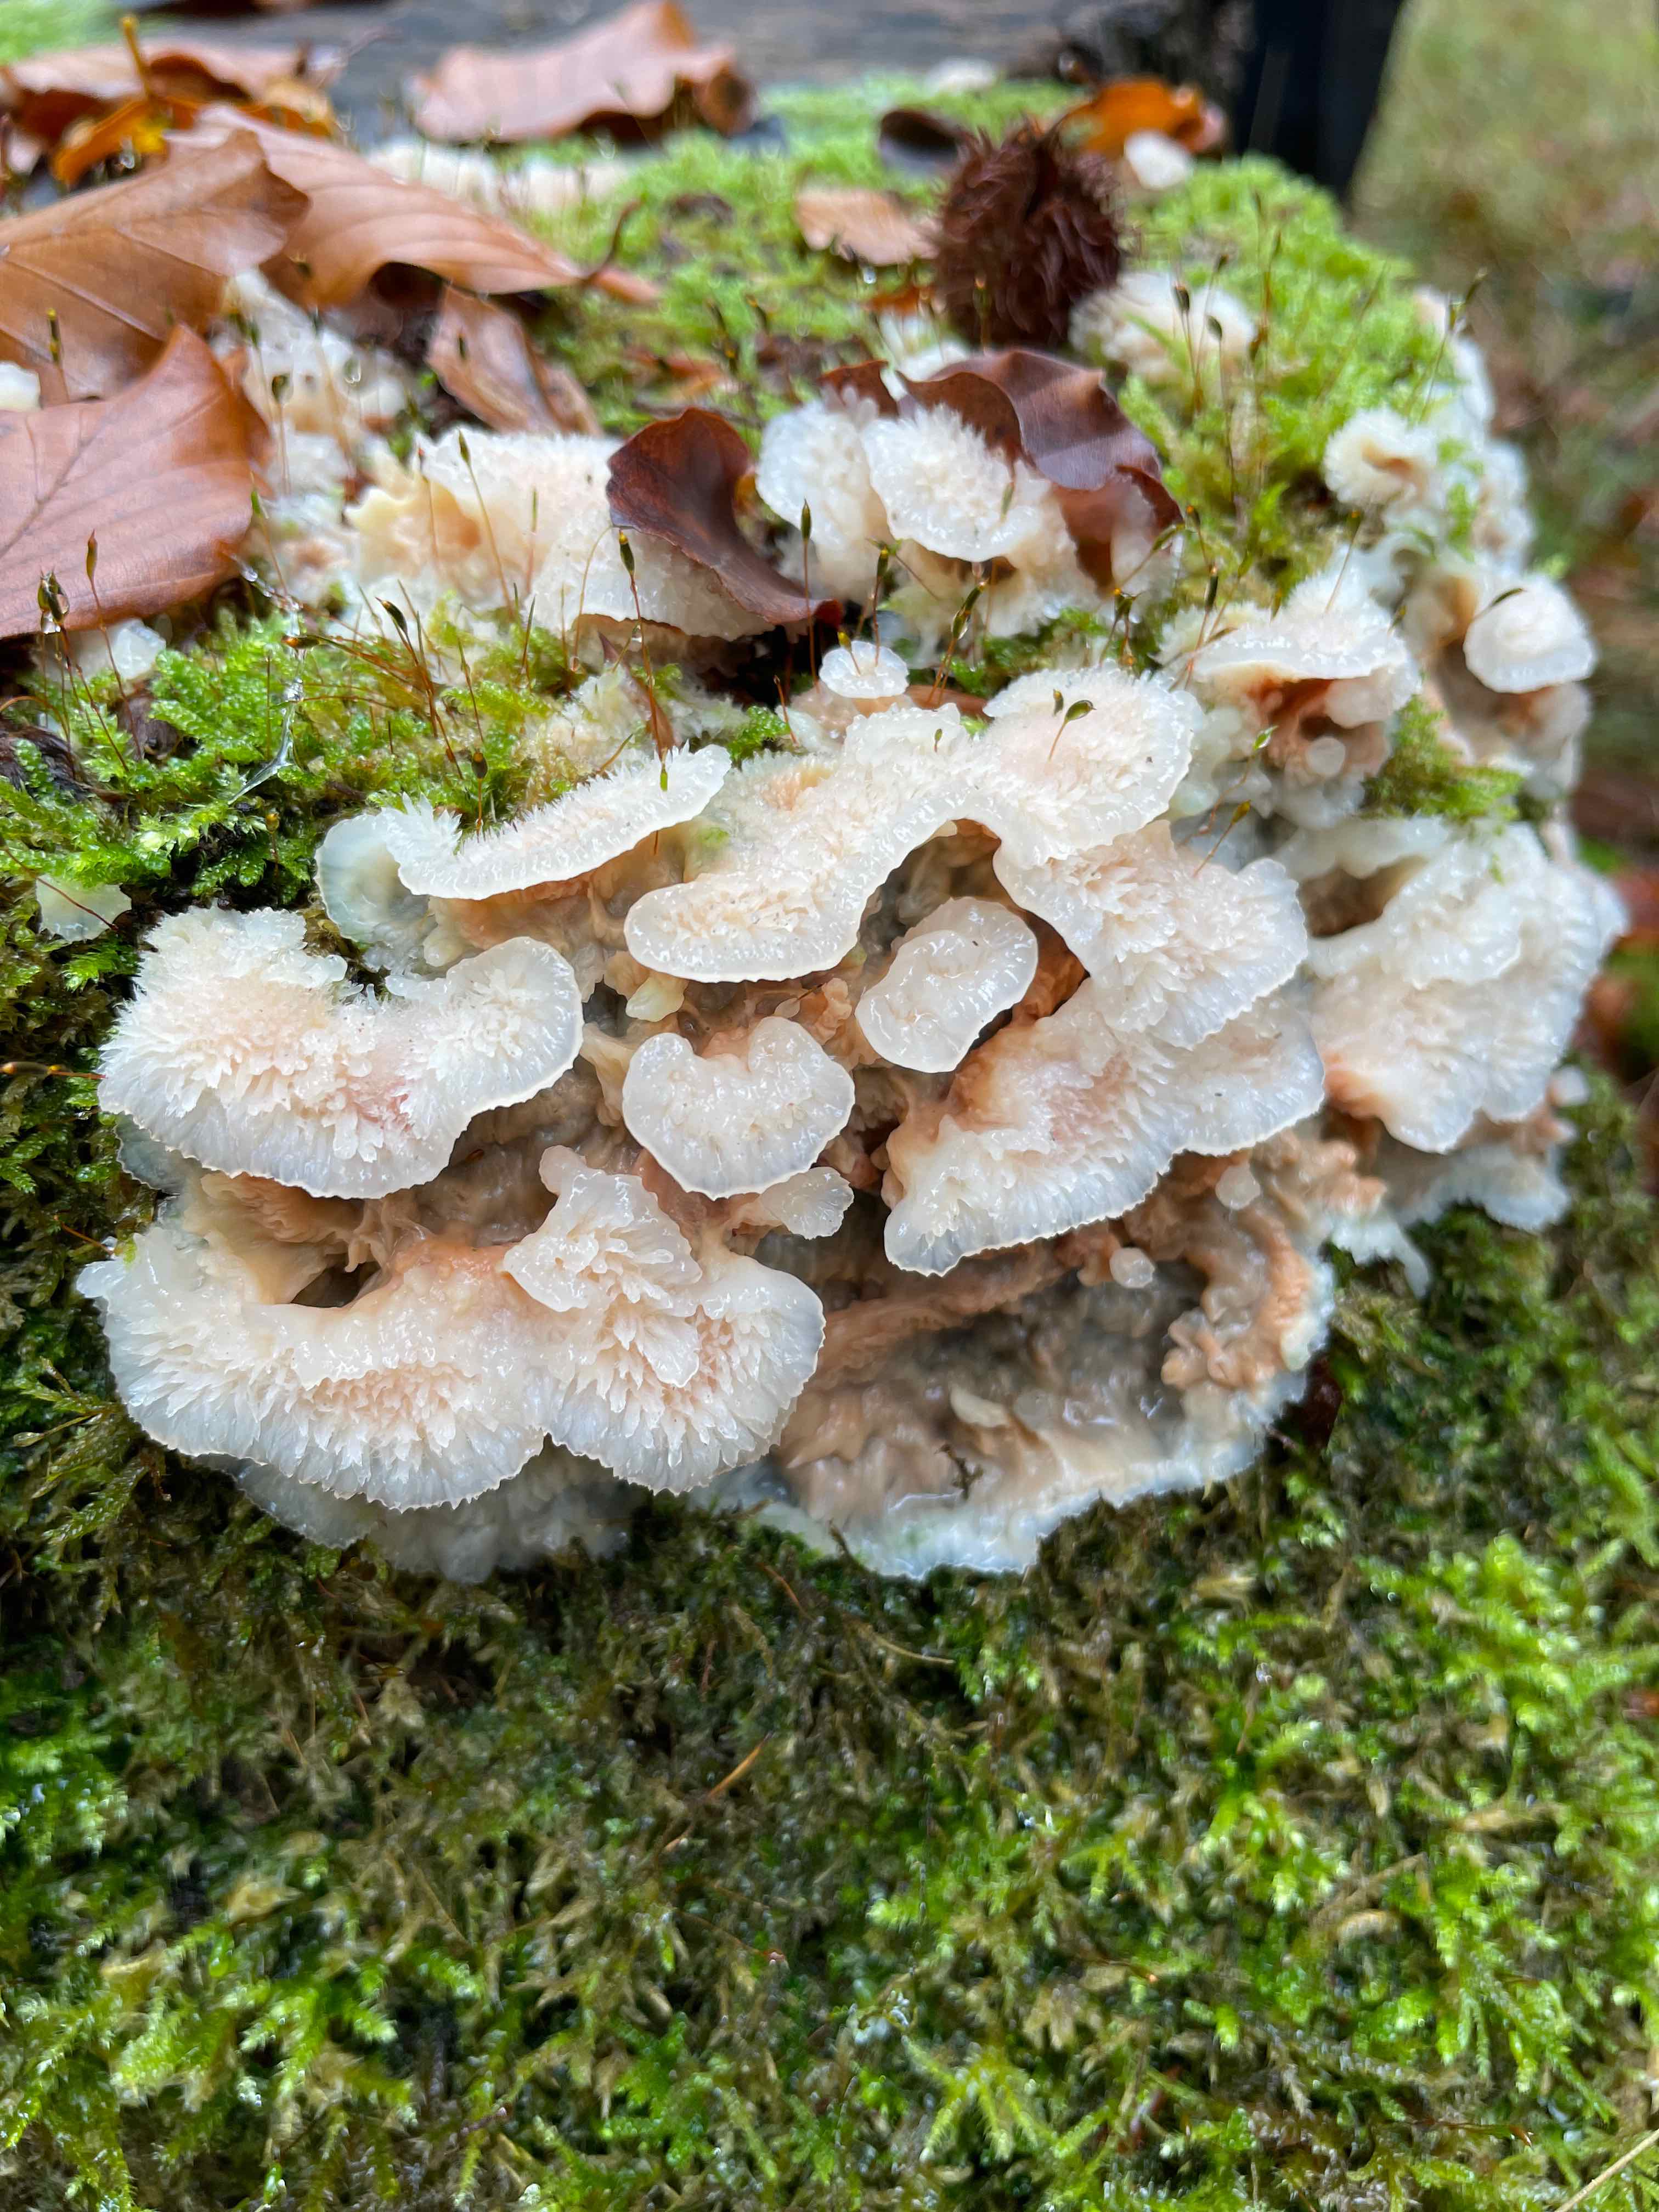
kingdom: Fungi
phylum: Basidiomycota
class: Agaricomycetes
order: Polyporales
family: Meruliaceae
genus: Phlebia
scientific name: Phlebia tremellosa
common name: bævrende åresvamp
